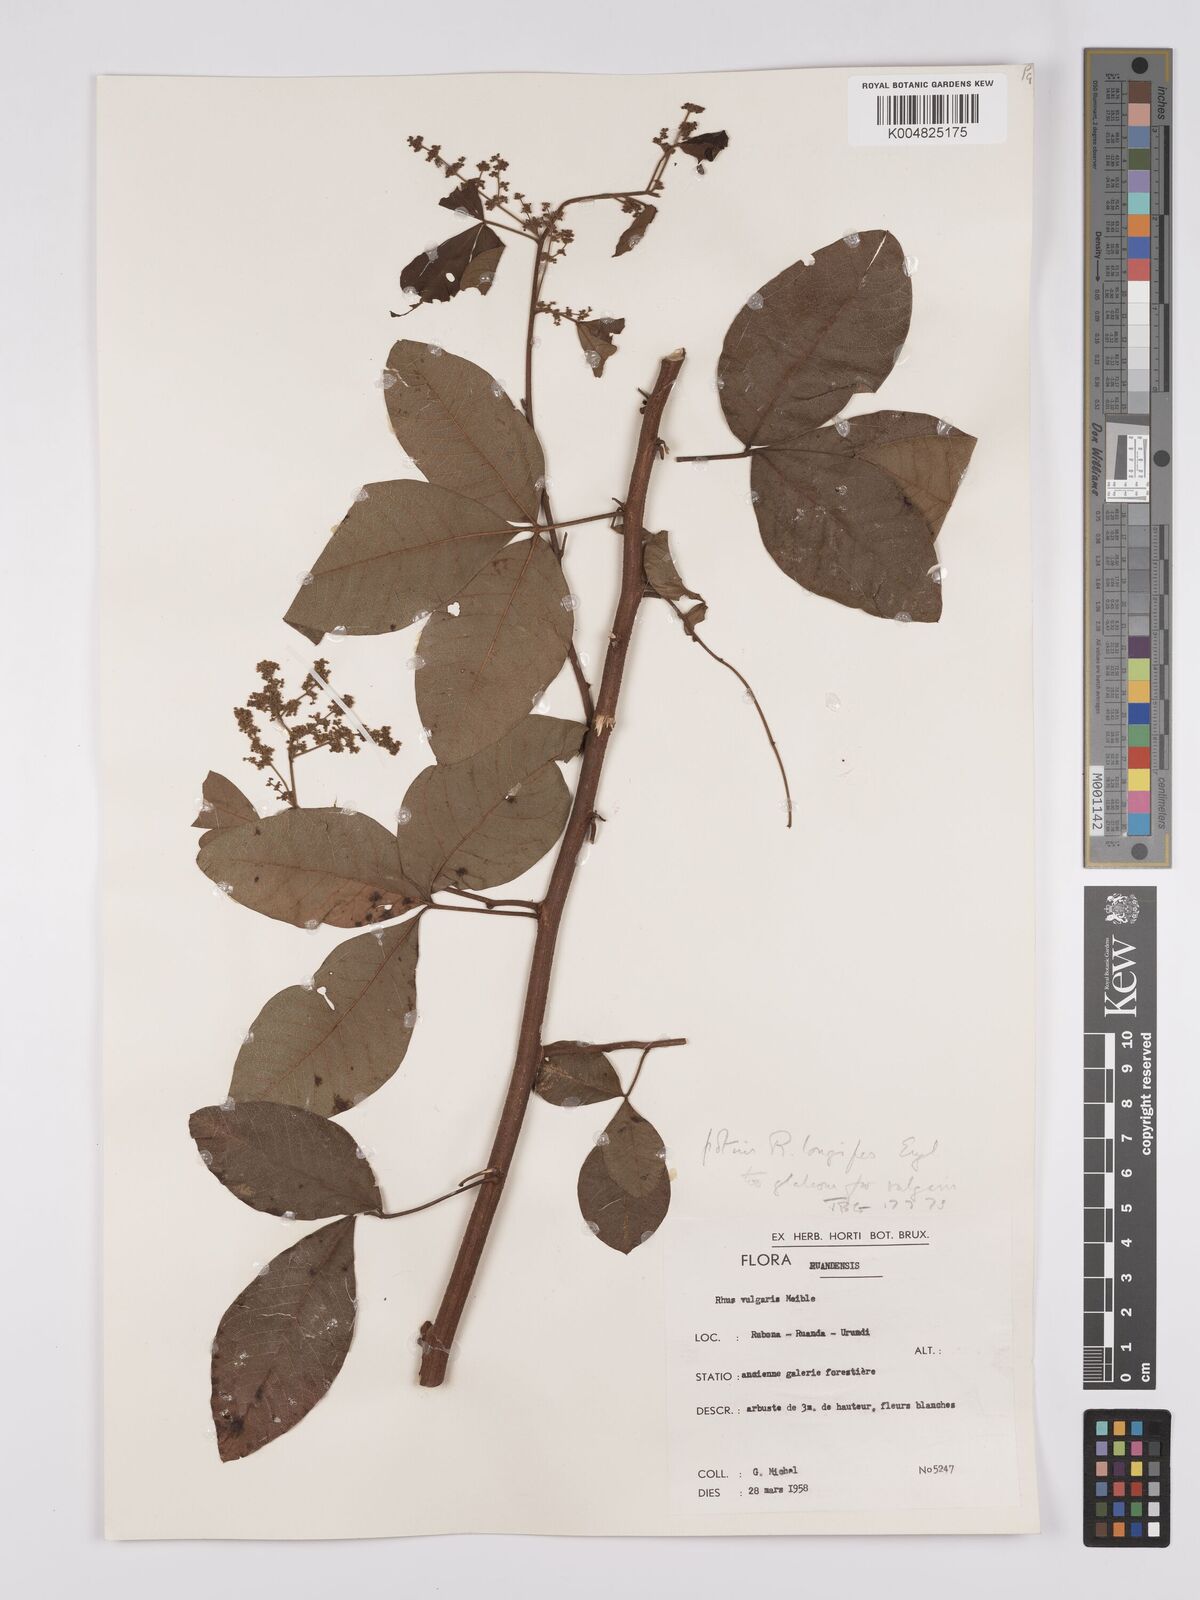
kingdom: Plantae
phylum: Tracheophyta
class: Magnoliopsida
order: Sapindales
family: Anacardiaceae
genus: Searsia
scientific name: Searsia longipes
